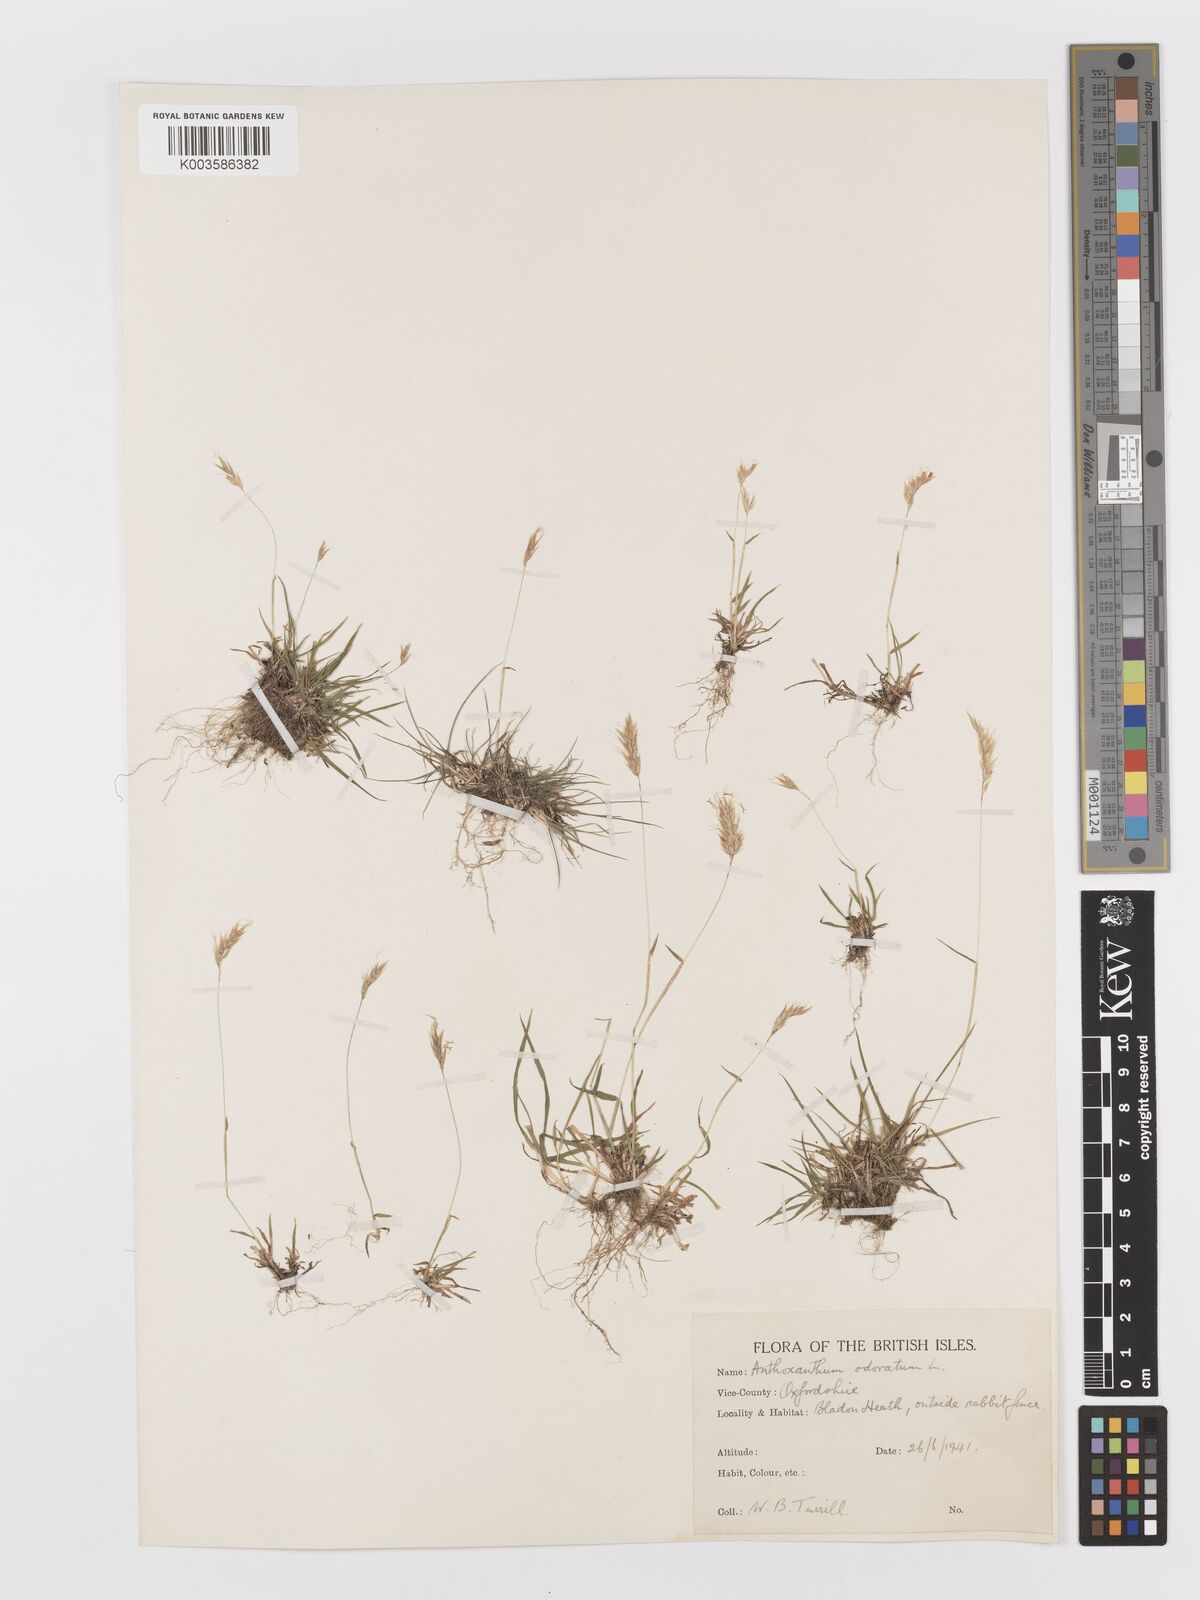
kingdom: Plantae
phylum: Tracheophyta
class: Liliopsida
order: Poales
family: Poaceae
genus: Anthoxanthum
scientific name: Anthoxanthum odoratum
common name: Sweet vernalgrass
